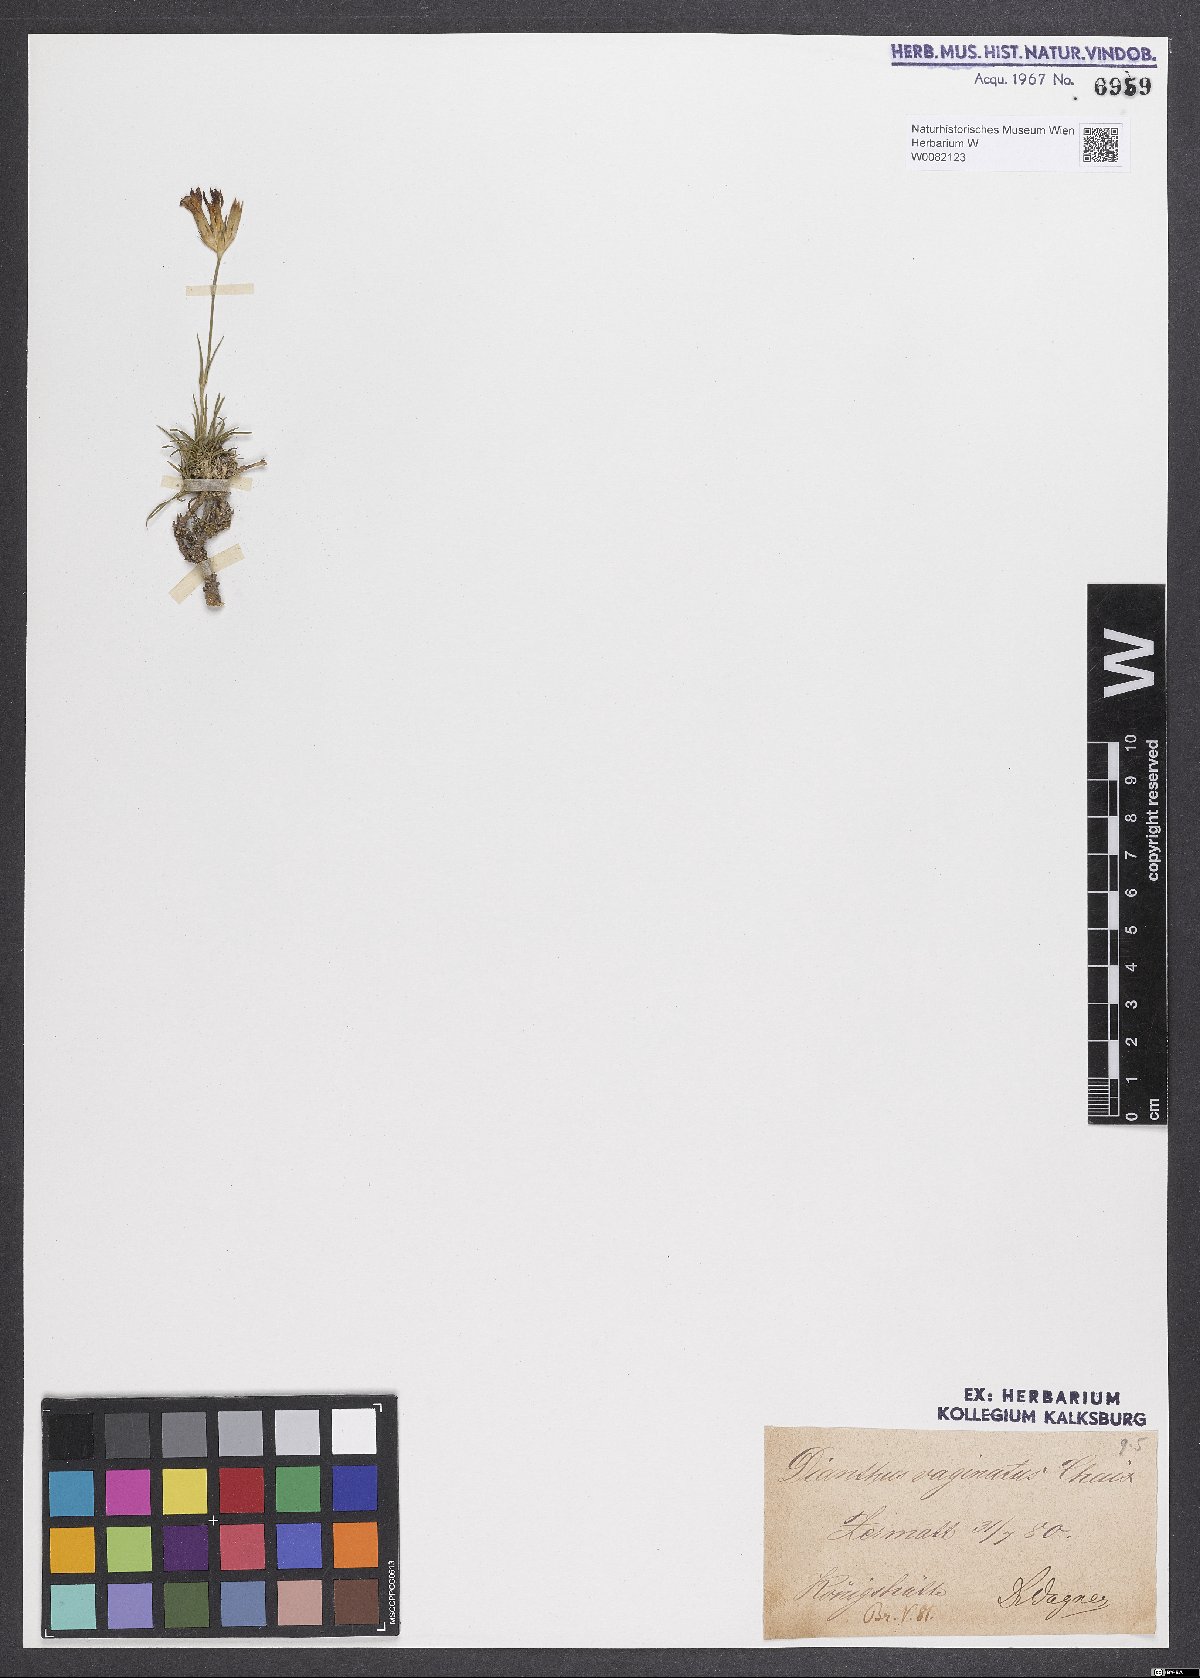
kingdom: Plantae
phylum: Tracheophyta
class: Magnoliopsida
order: Caryophyllales
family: Caryophyllaceae
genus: Dianthus
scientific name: Dianthus carthusianorum
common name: Carthusian pink
